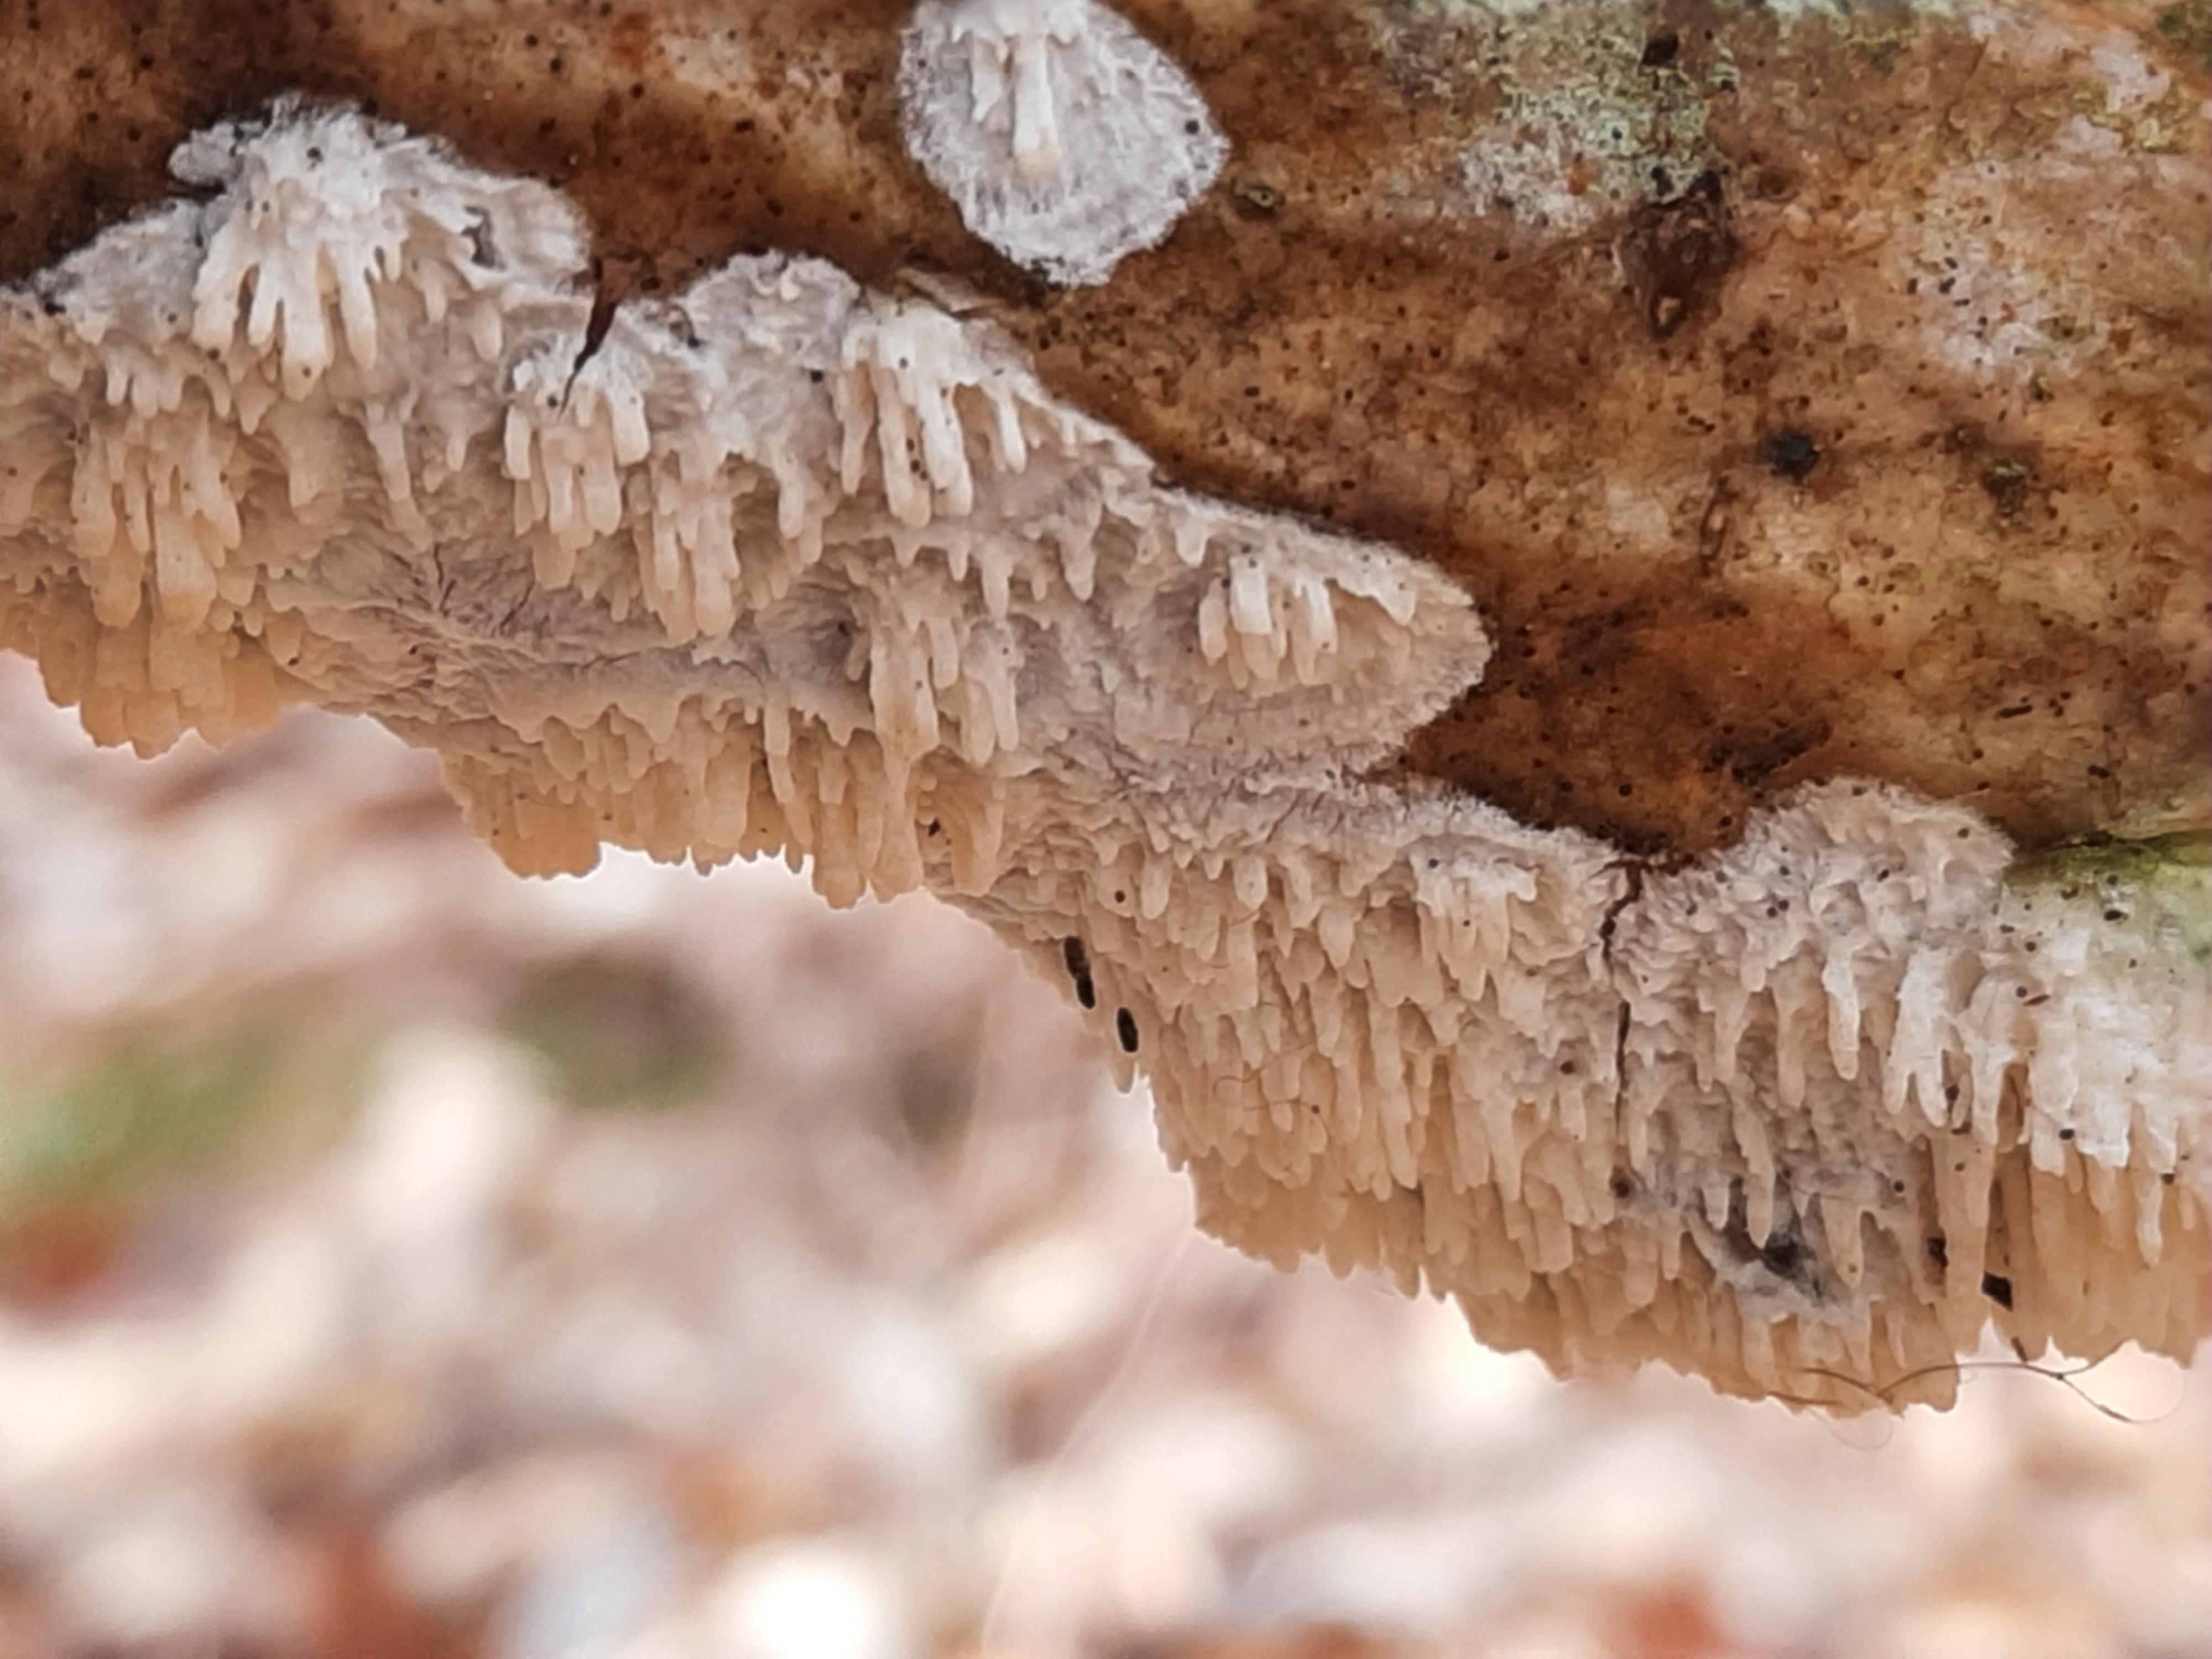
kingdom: Fungi
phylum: Basidiomycota
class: Agaricomycetes
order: Hymenochaetales
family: Schizoporaceae
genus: Xylodon
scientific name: Xylodon radula
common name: grovtandet kalkskind
